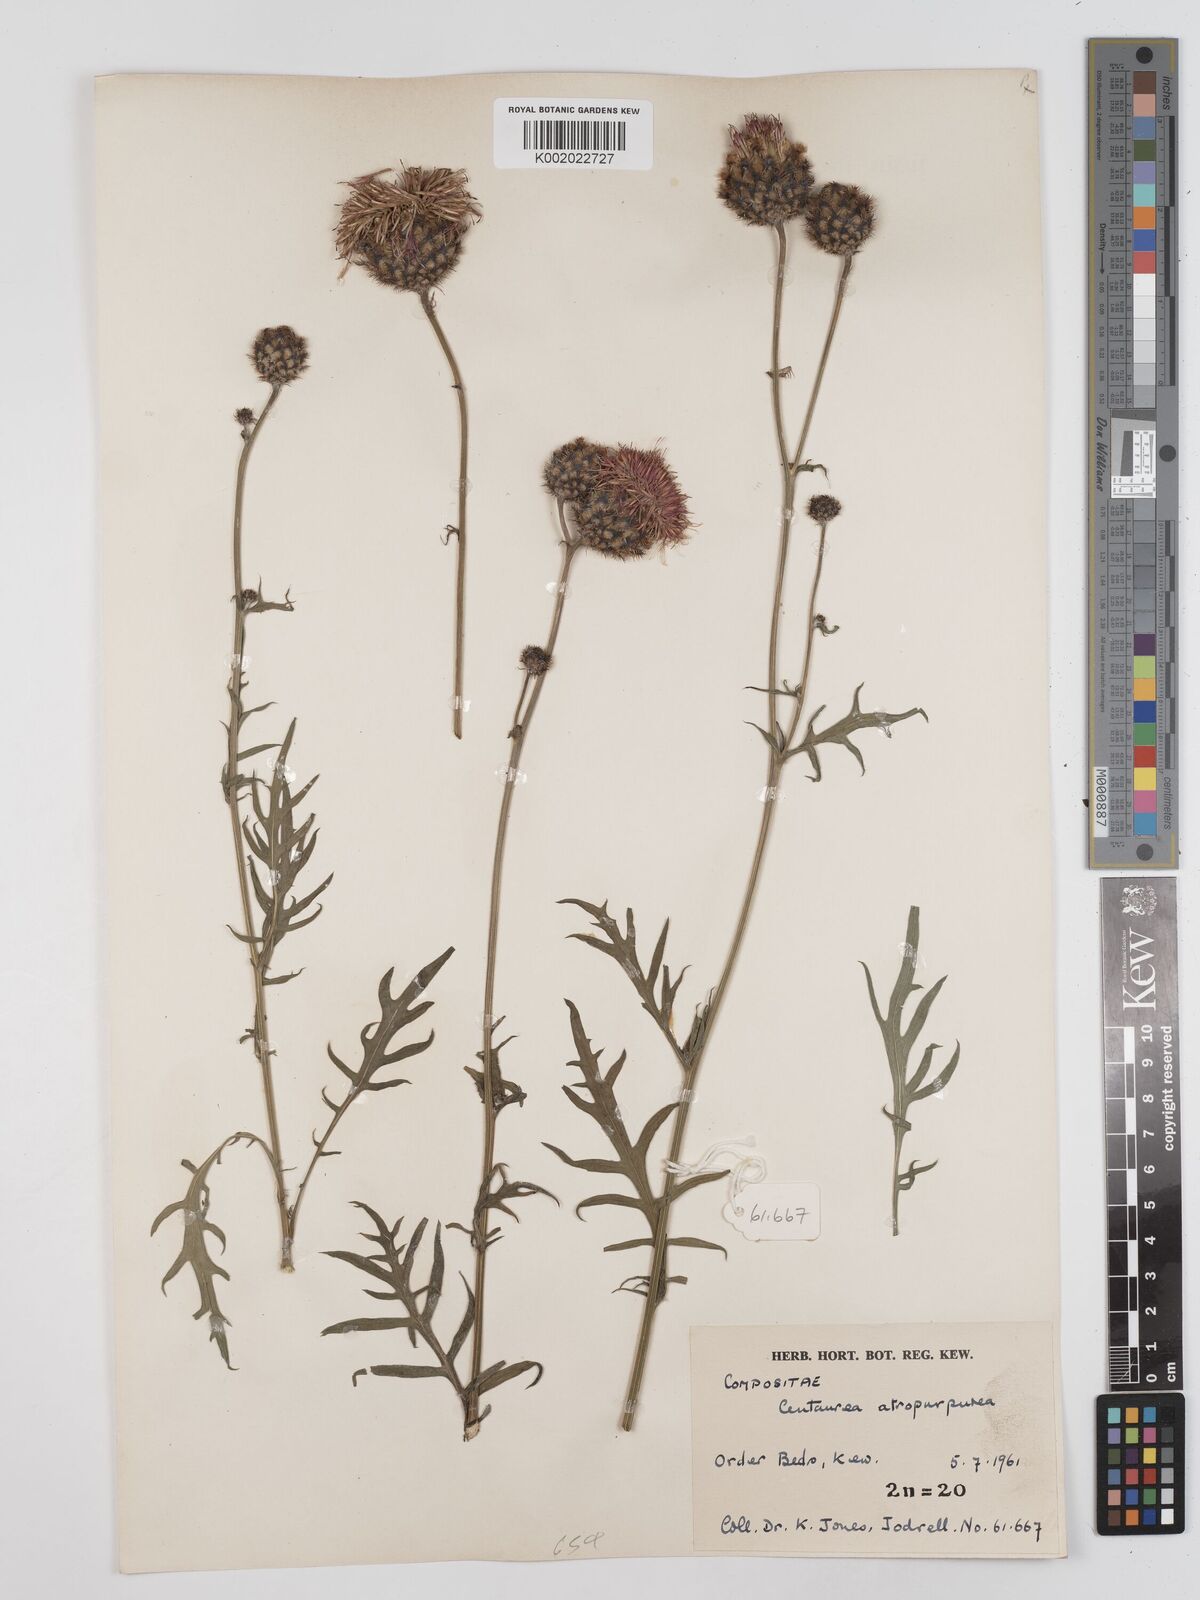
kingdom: Plantae
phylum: Tracheophyta
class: Magnoliopsida
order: Asterales
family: Asteraceae
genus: Centaurea
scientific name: Centaurea
